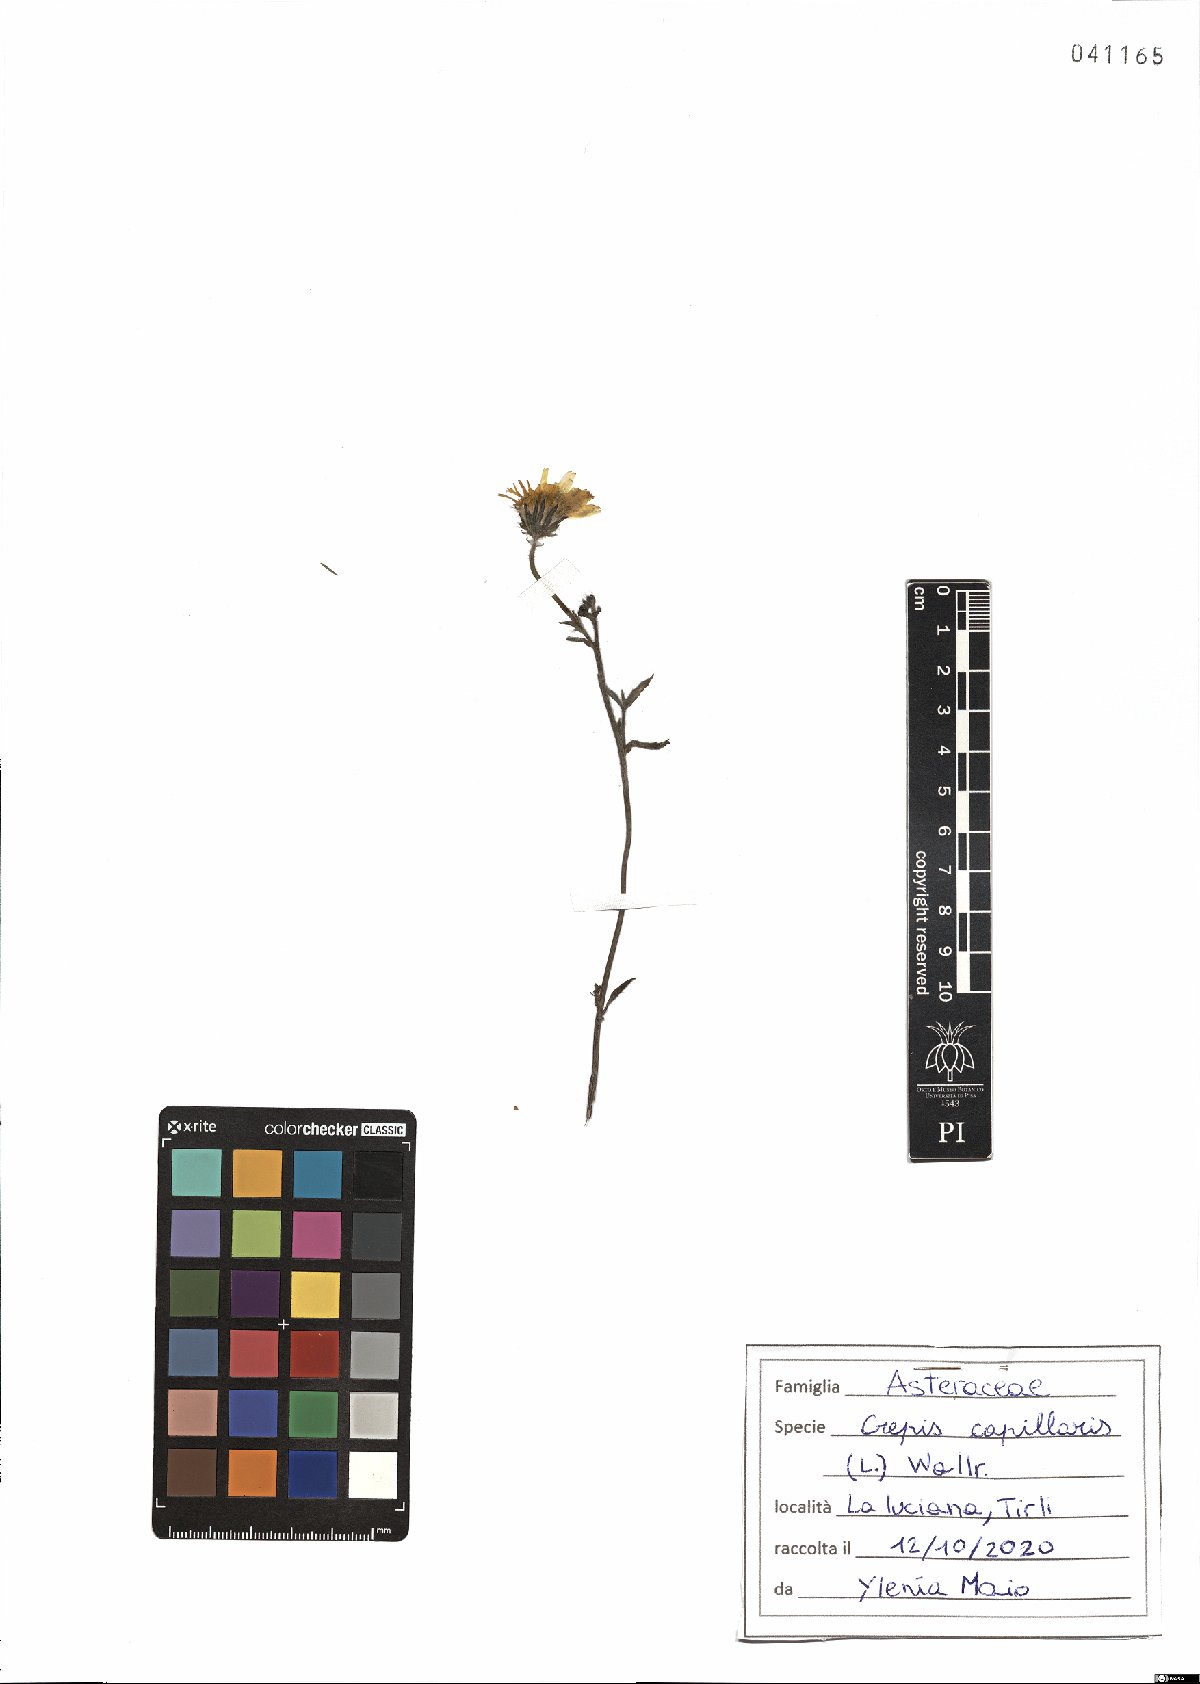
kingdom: Plantae
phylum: Tracheophyta
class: Magnoliopsida
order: Asterales
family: Asteraceae
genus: Crepis
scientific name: Crepis capillaris
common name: Smooth hawksbeard
